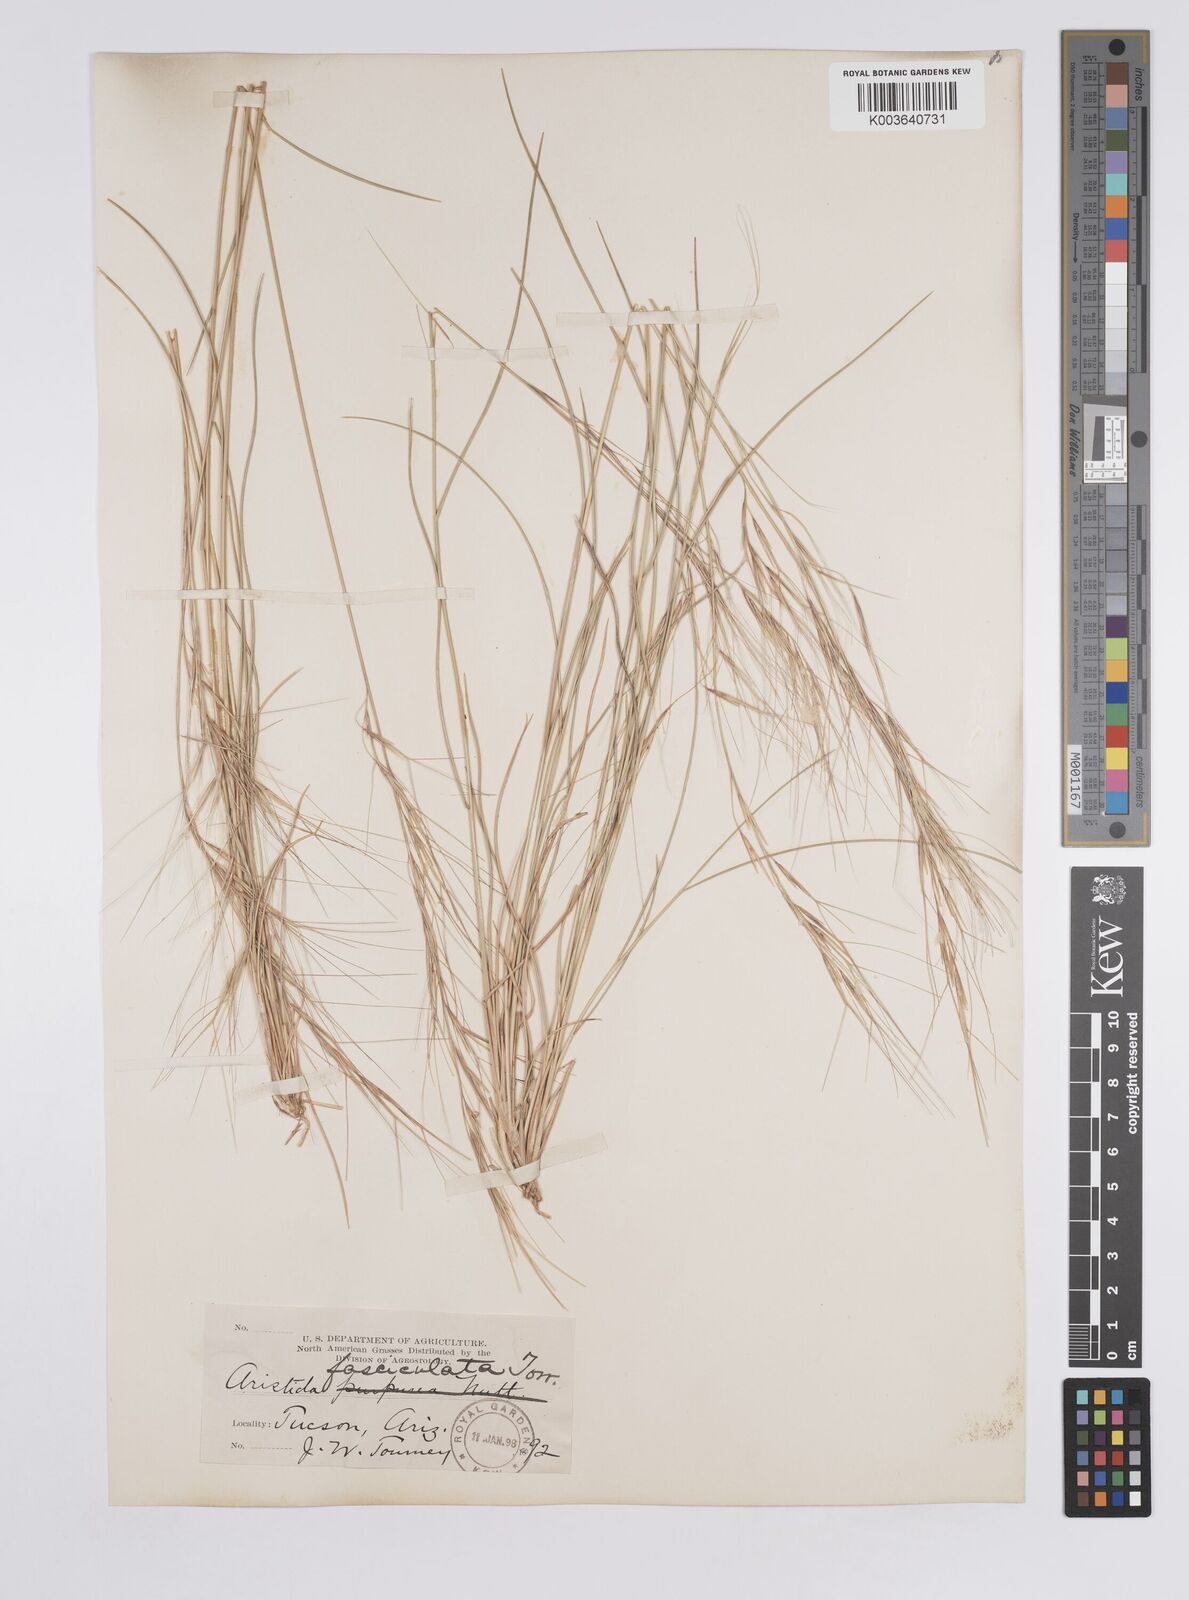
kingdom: Plantae
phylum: Tracheophyta
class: Liliopsida
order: Poales
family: Poaceae
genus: Aristida
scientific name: Aristida adscensionis
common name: Sixweeks threeawn
